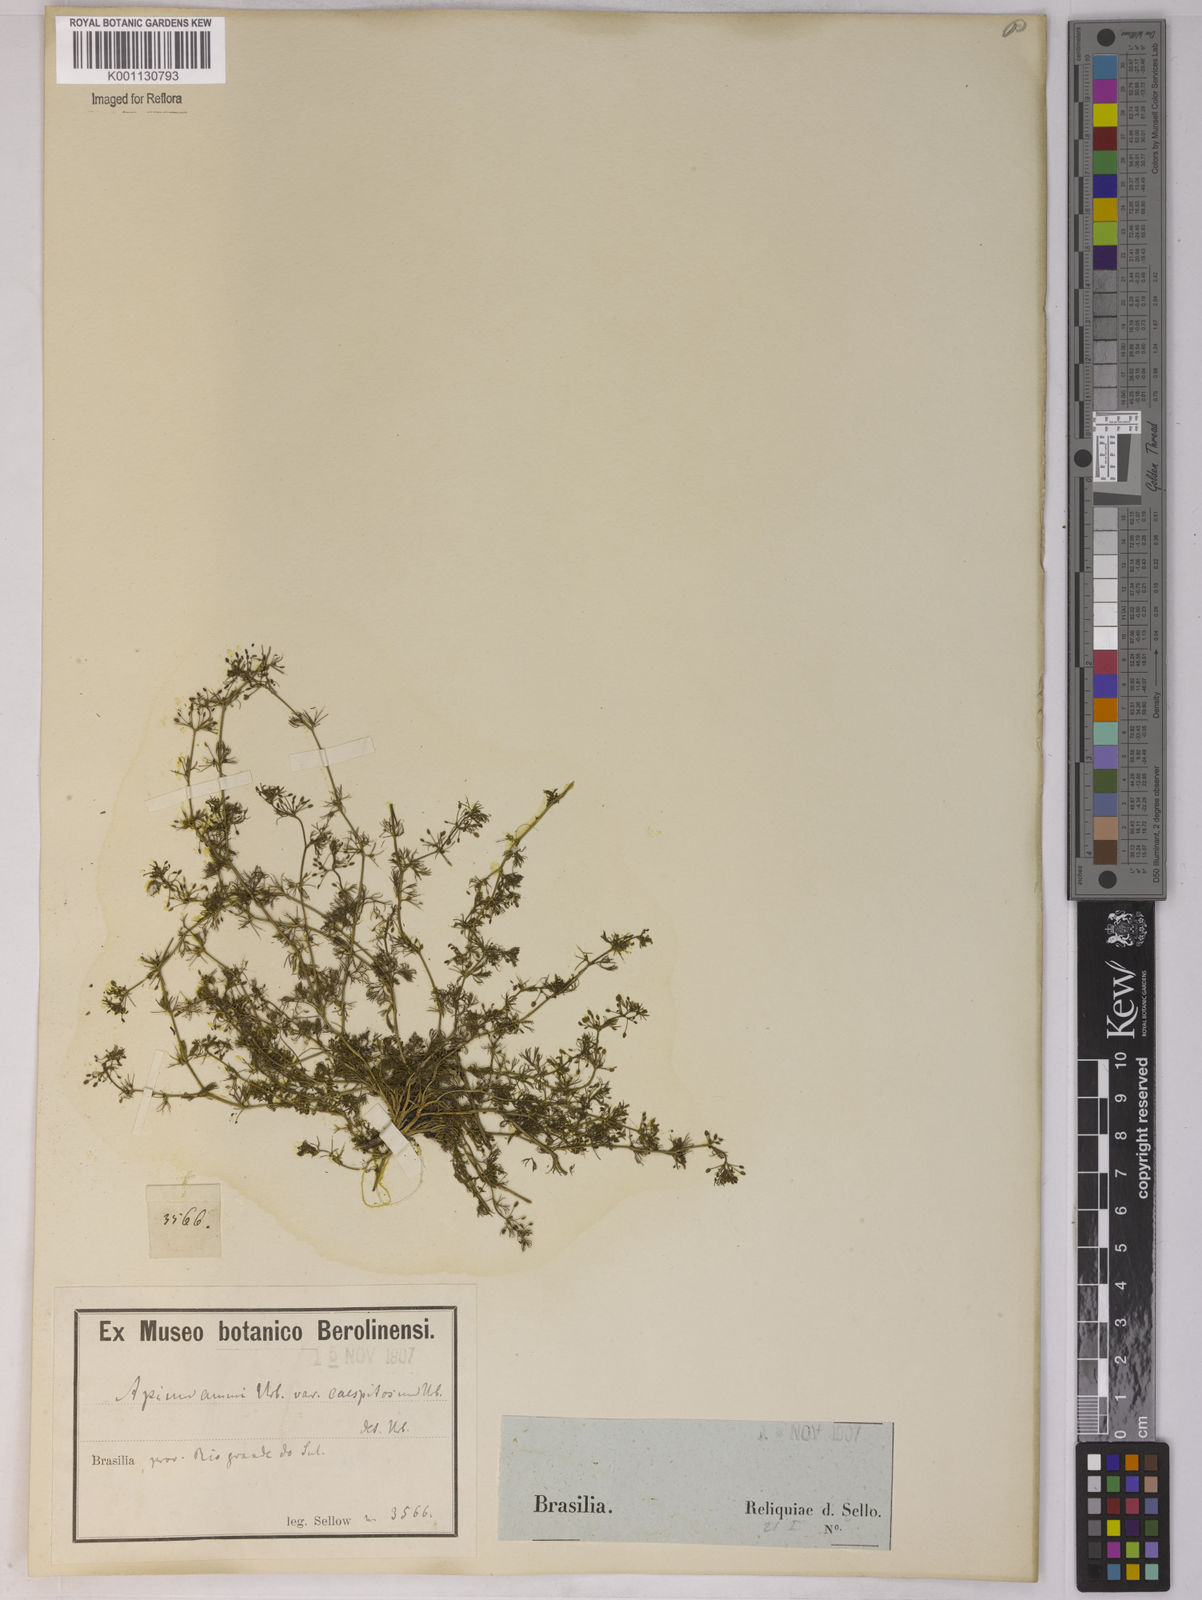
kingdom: Plantae
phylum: Tracheophyta
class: Magnoliopsida
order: Apiales
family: Apiaceae
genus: Apium
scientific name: Apium
